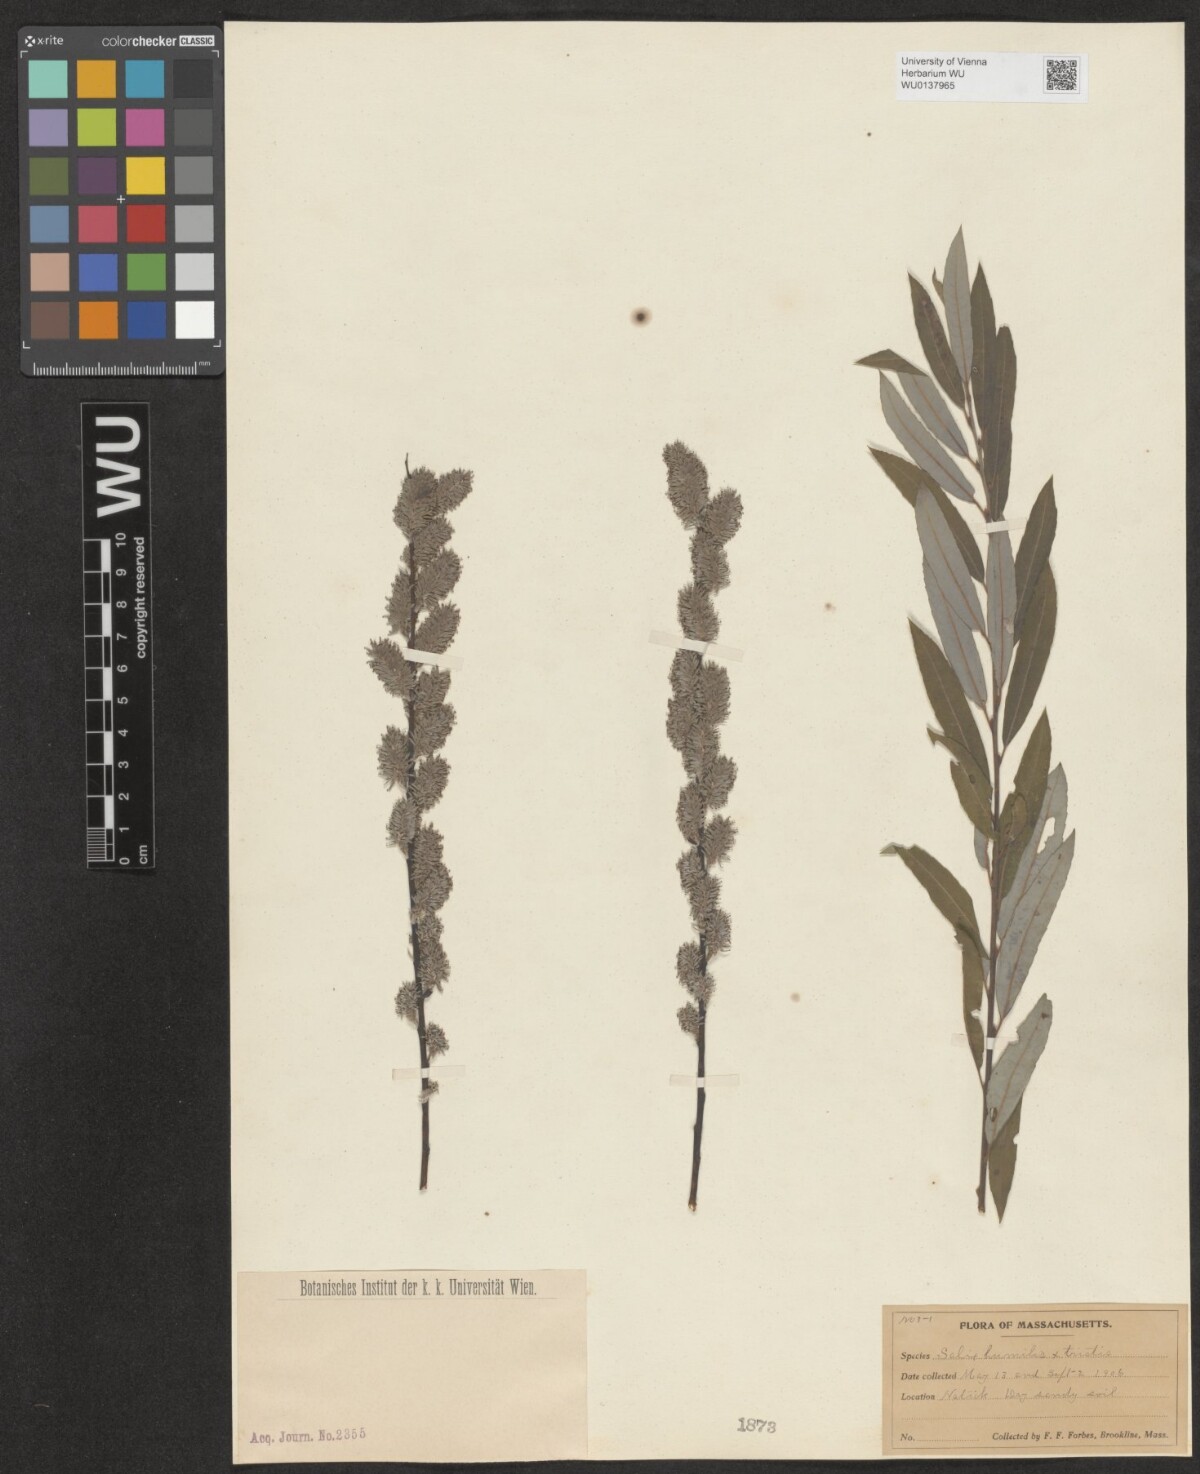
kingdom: Plantae
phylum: Tracheophyta
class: Magnoliopsida
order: Malpighiales
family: Salicaceae
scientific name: Salicaceae
